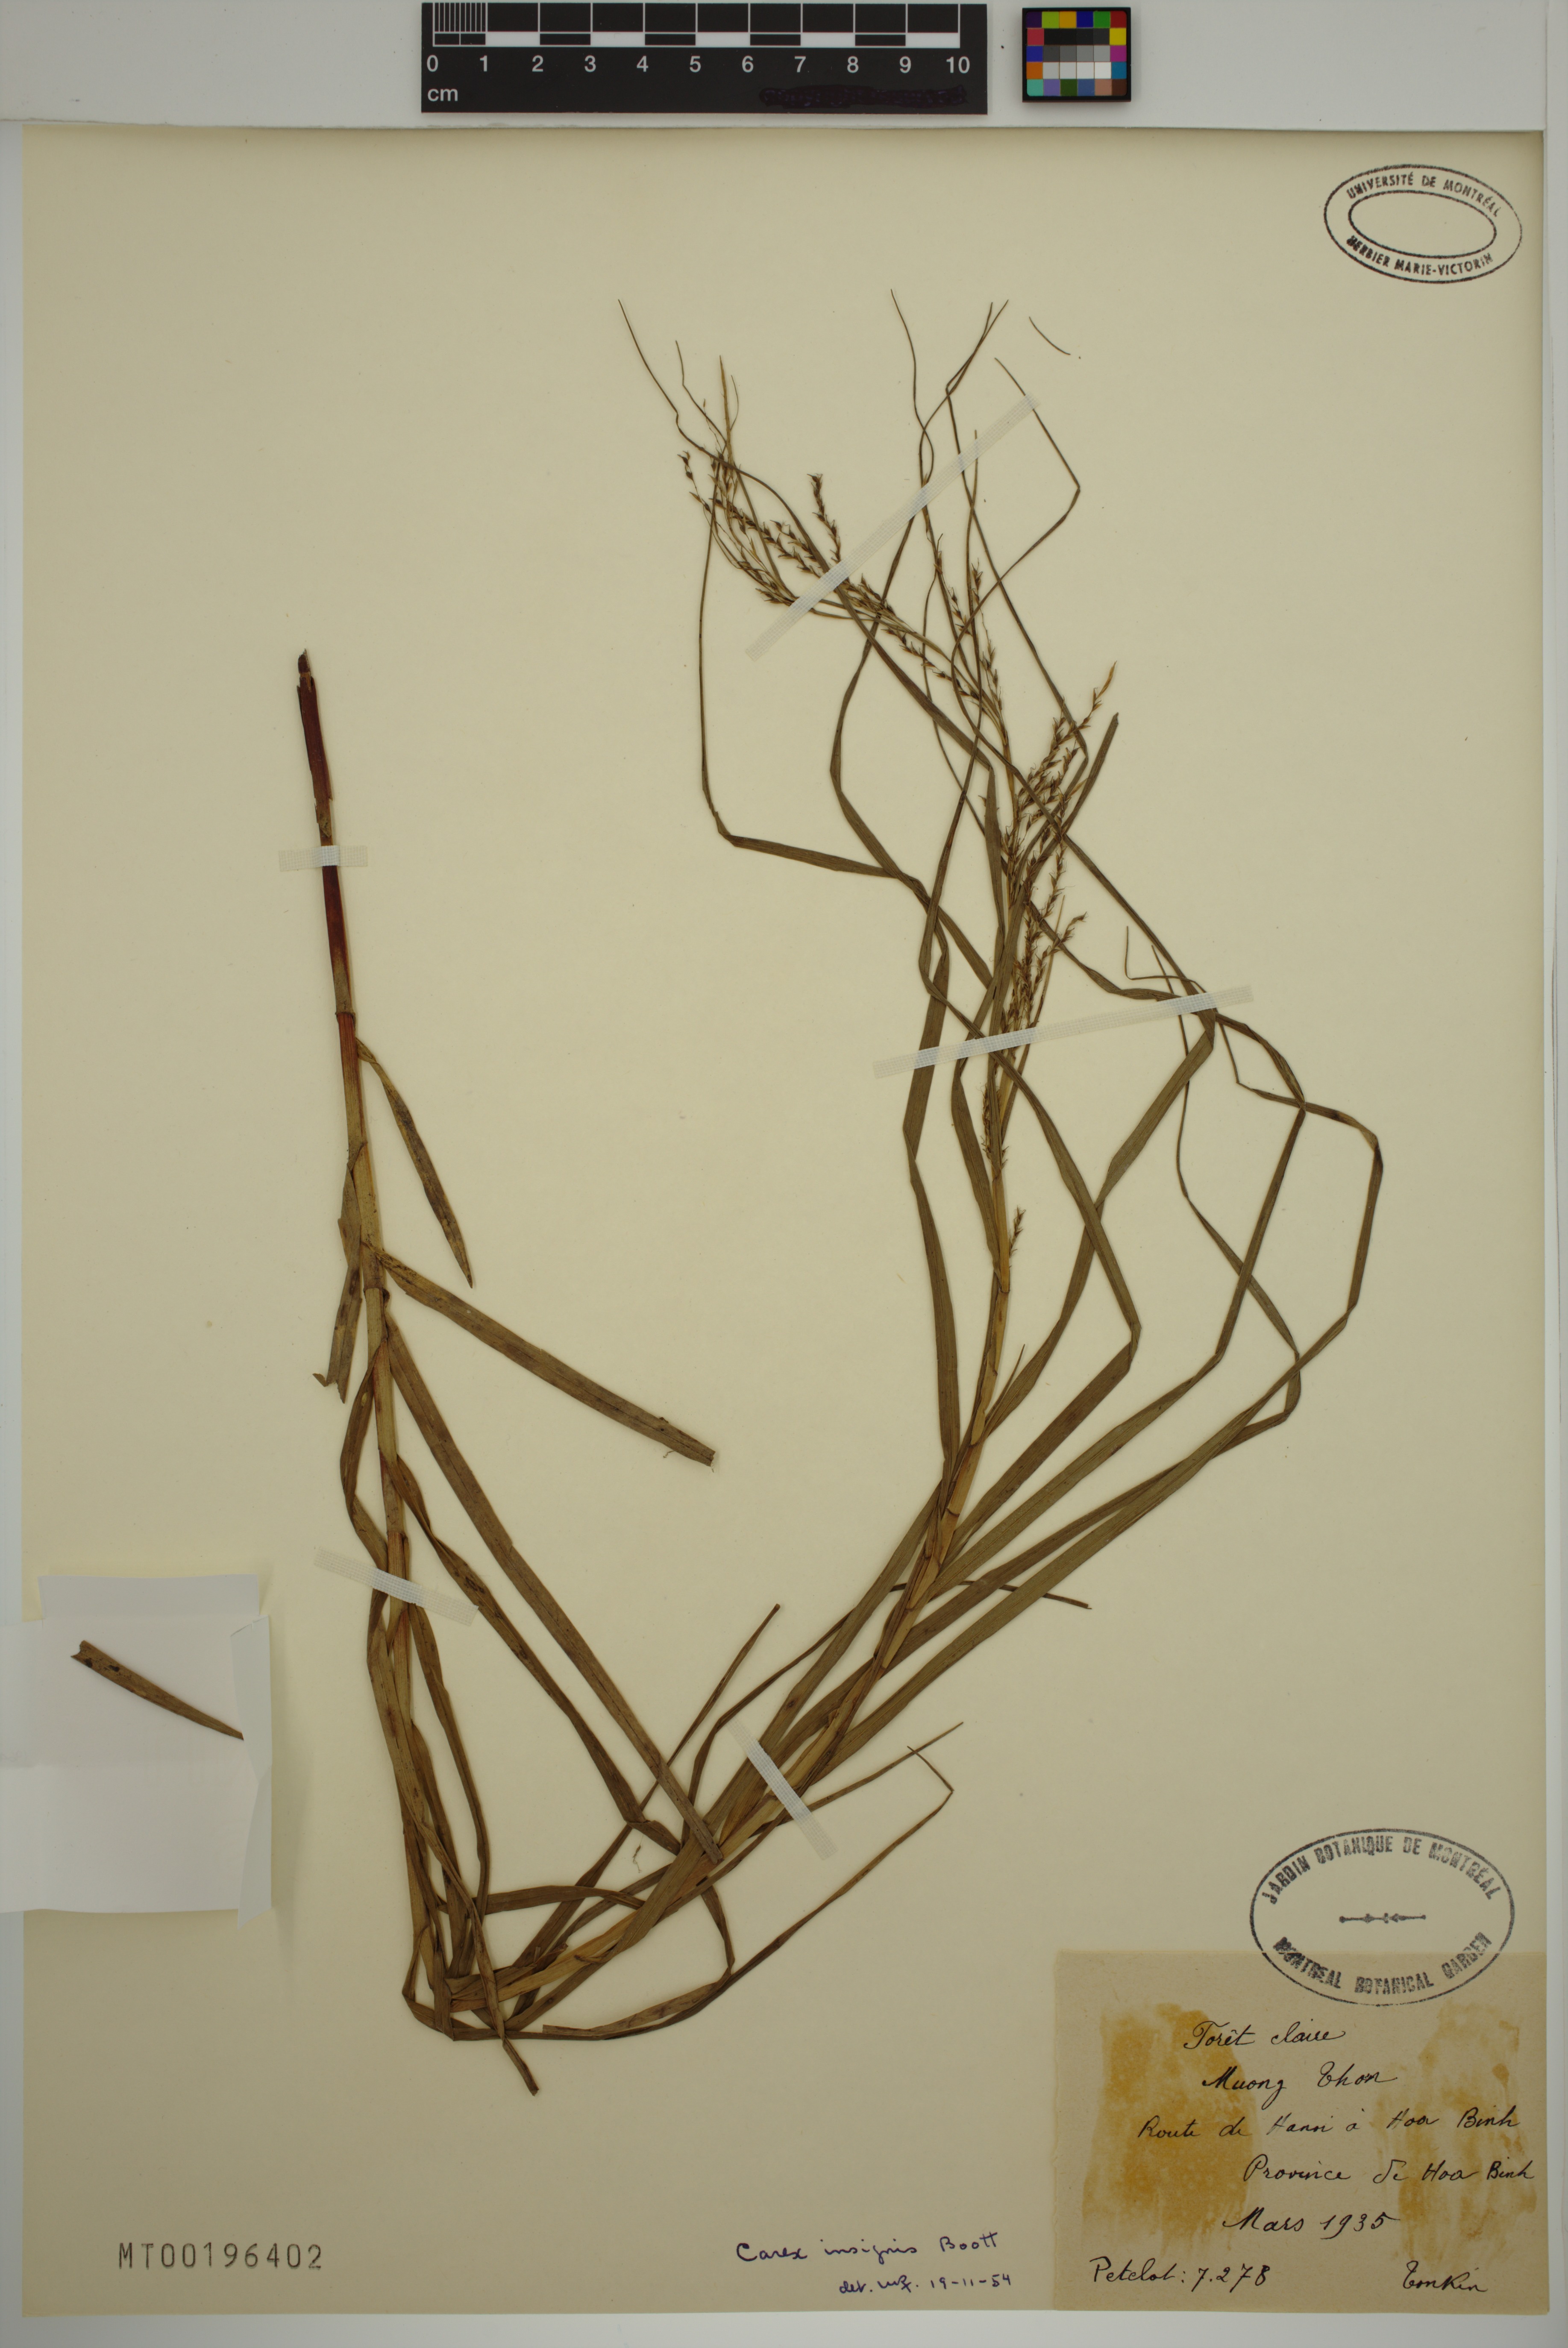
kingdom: Plantae
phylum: Tracheophyta
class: Liliopsida
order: Poales
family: Cyperaceae
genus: Carex
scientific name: Carex insignis
